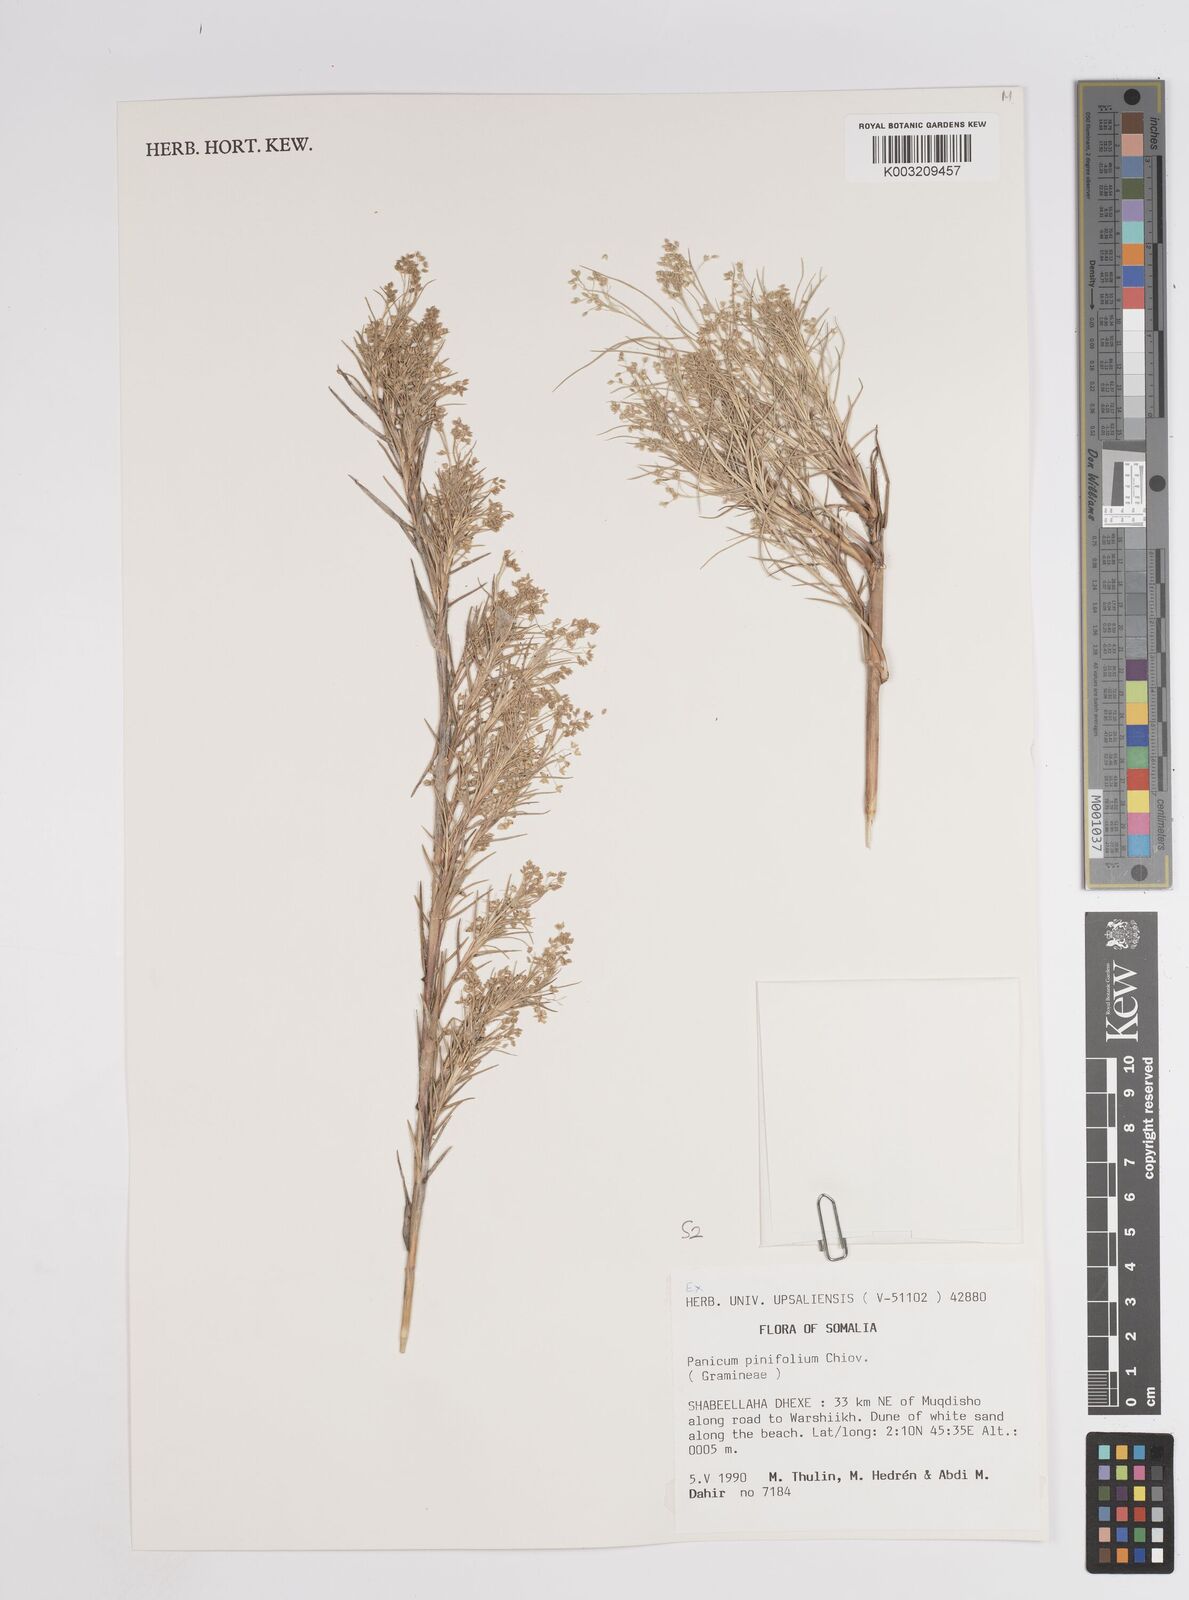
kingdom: Plantae
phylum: Tracheophyta
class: Liliopsida
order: Poales
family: Poaceae
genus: Panicum
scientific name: Panicum pinifolium
